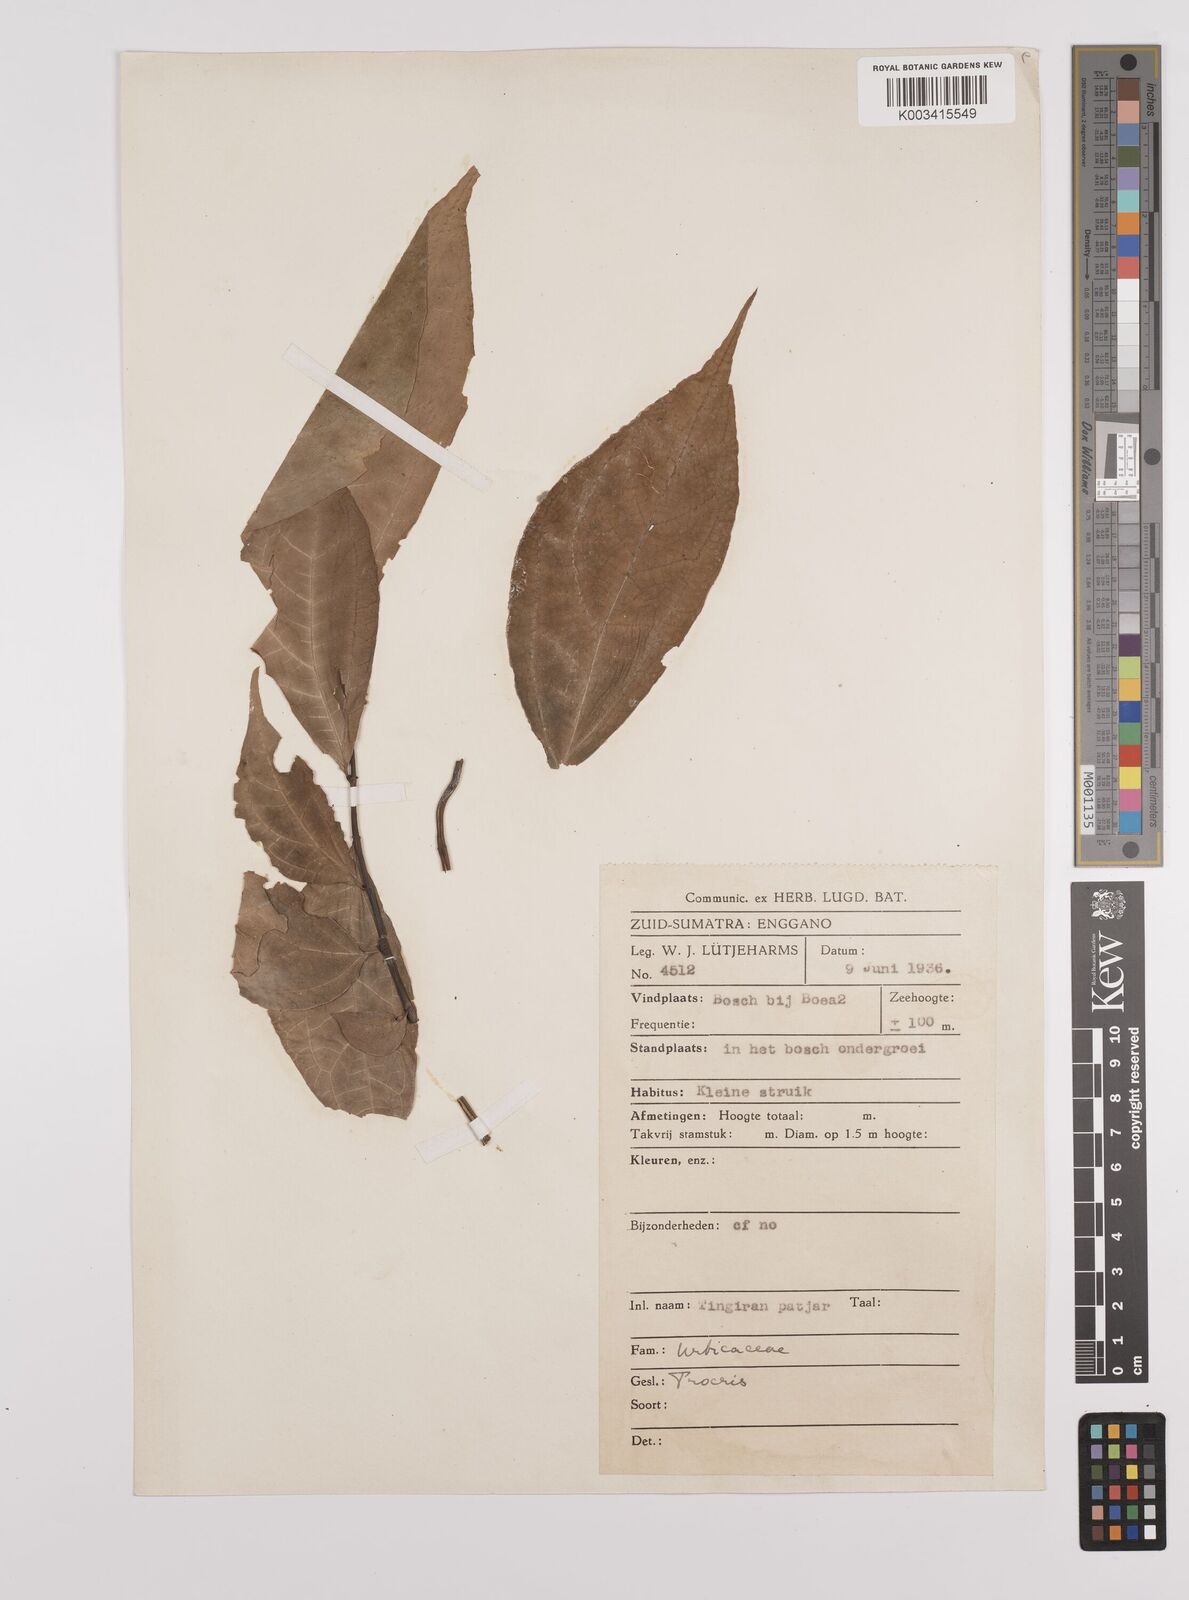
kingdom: Plantae
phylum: Tracheophyta
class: Magnoliopsida
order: Rosales
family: Urticaceae
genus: Elatostema
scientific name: Elatostema
